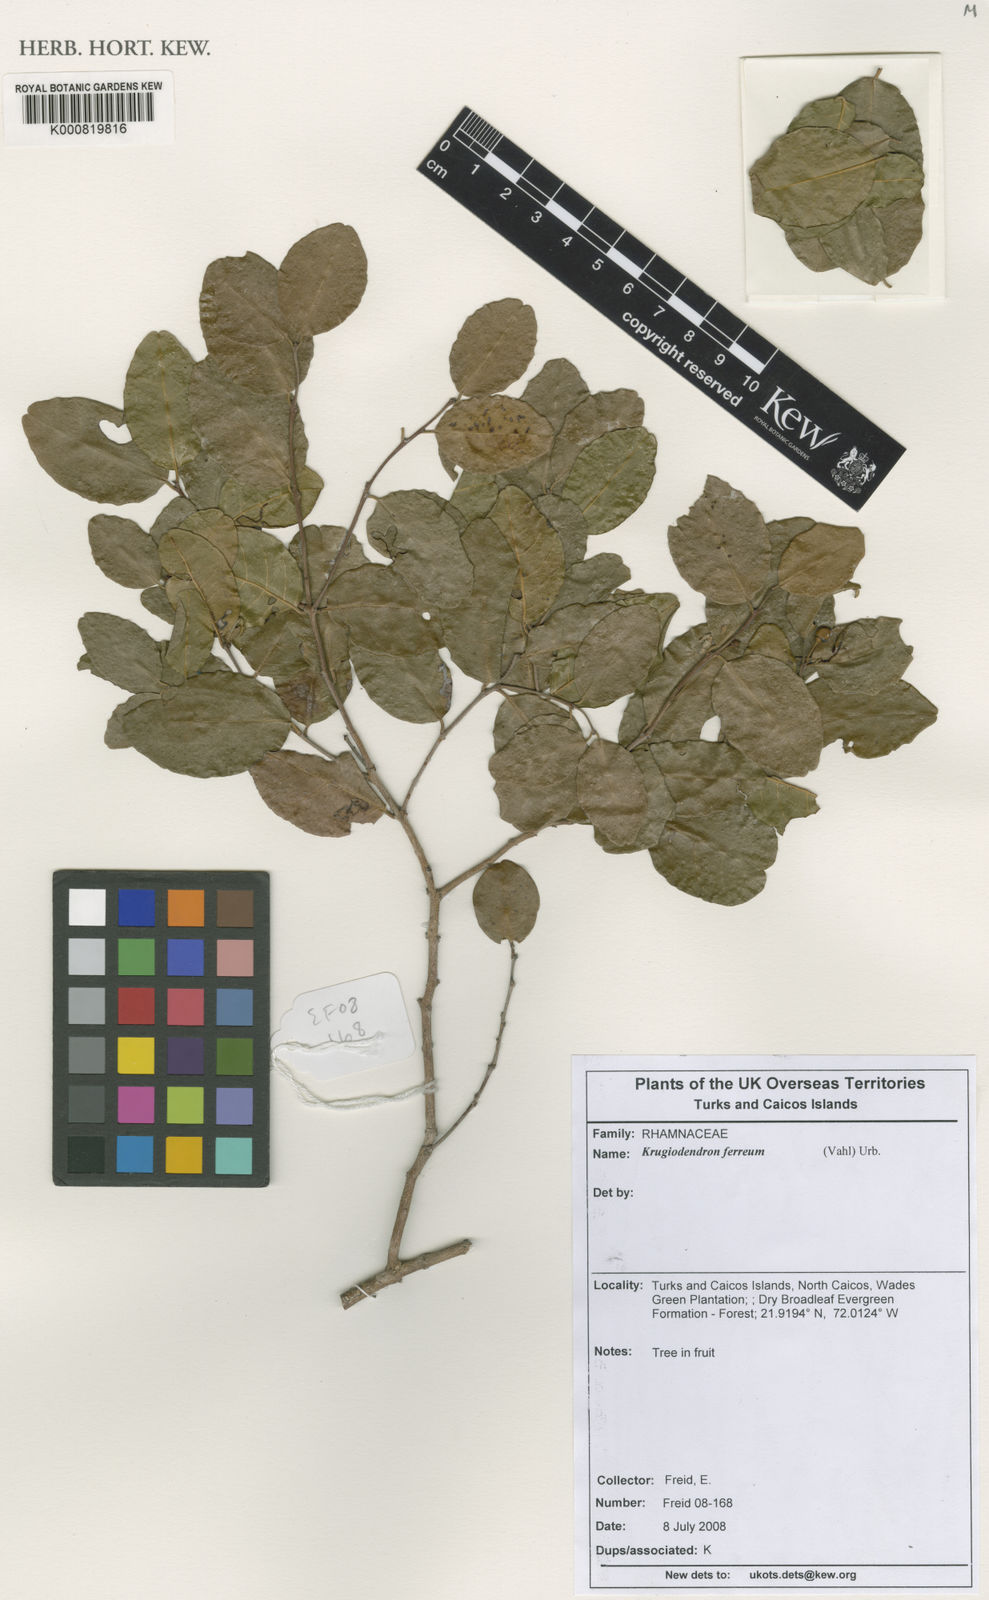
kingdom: Plantae
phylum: Tracheophyta
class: Magnoliopsida
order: Rosales
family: Rhamnaceae
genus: Krugiodendron
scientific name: Krugiodendron ferreum
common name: Iron wood
